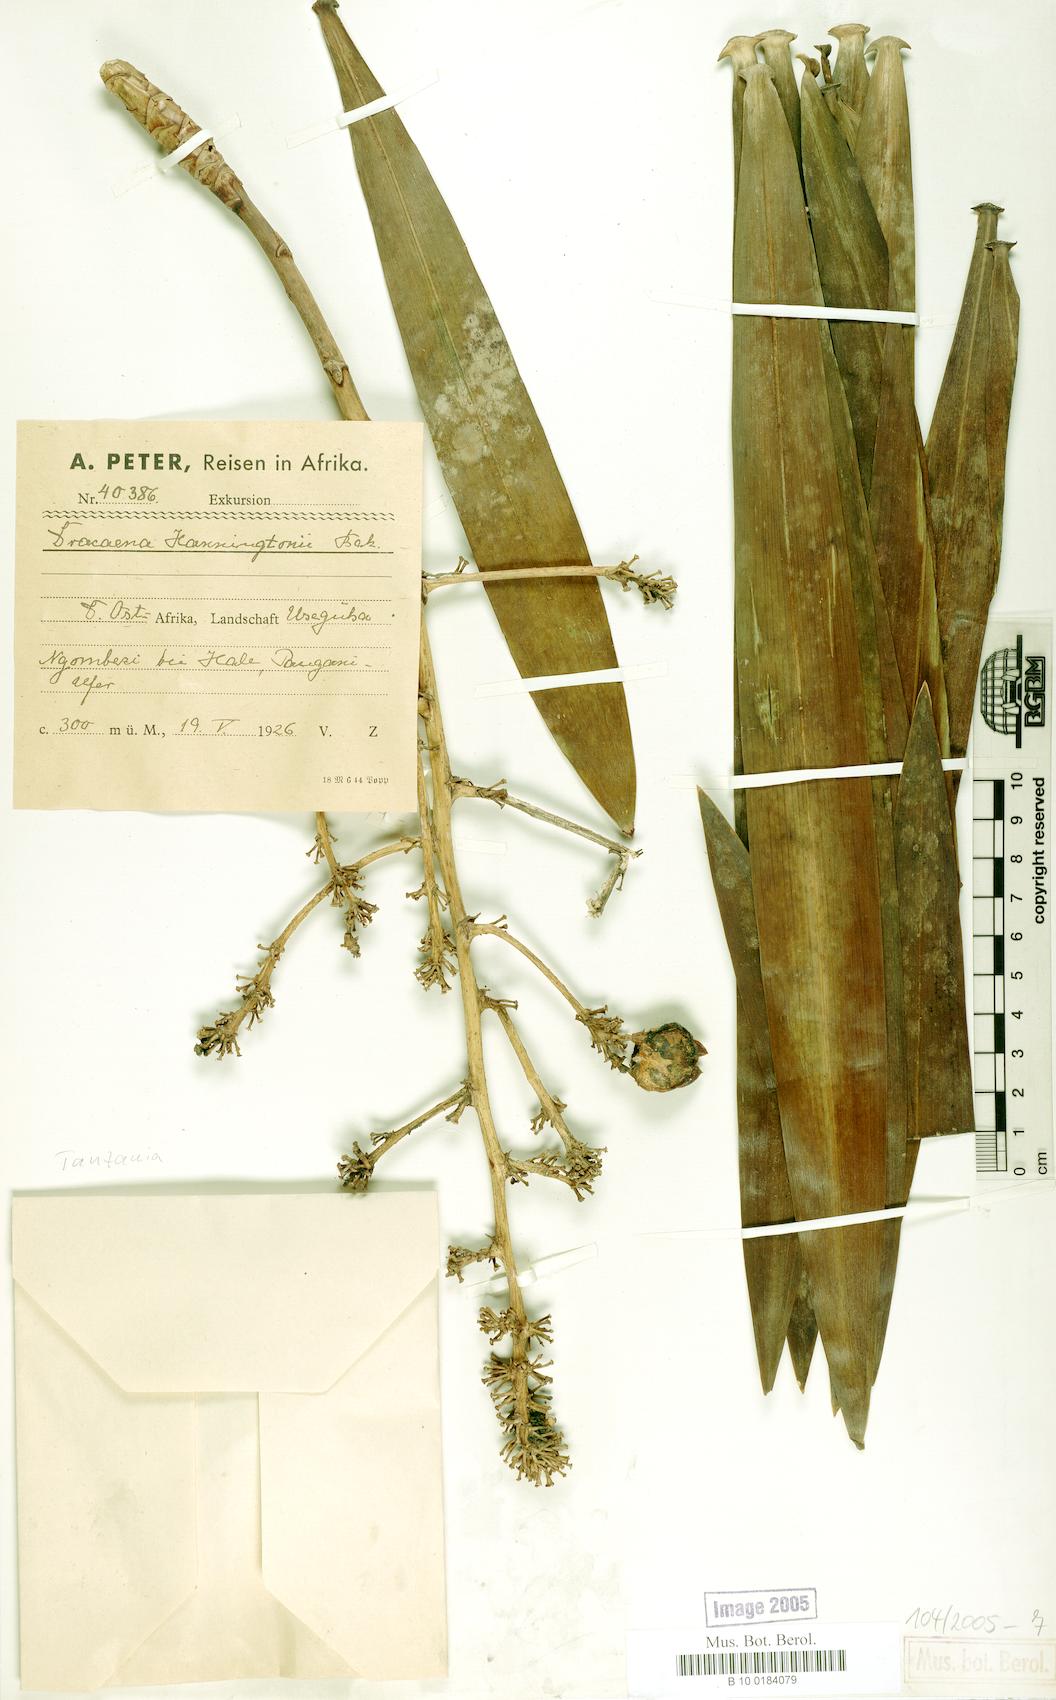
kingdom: Plantae
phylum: Tracheophyta
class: Liliopsida
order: Asparagales
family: Asparagaceae
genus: Dracaena
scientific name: Dracaena mannii
